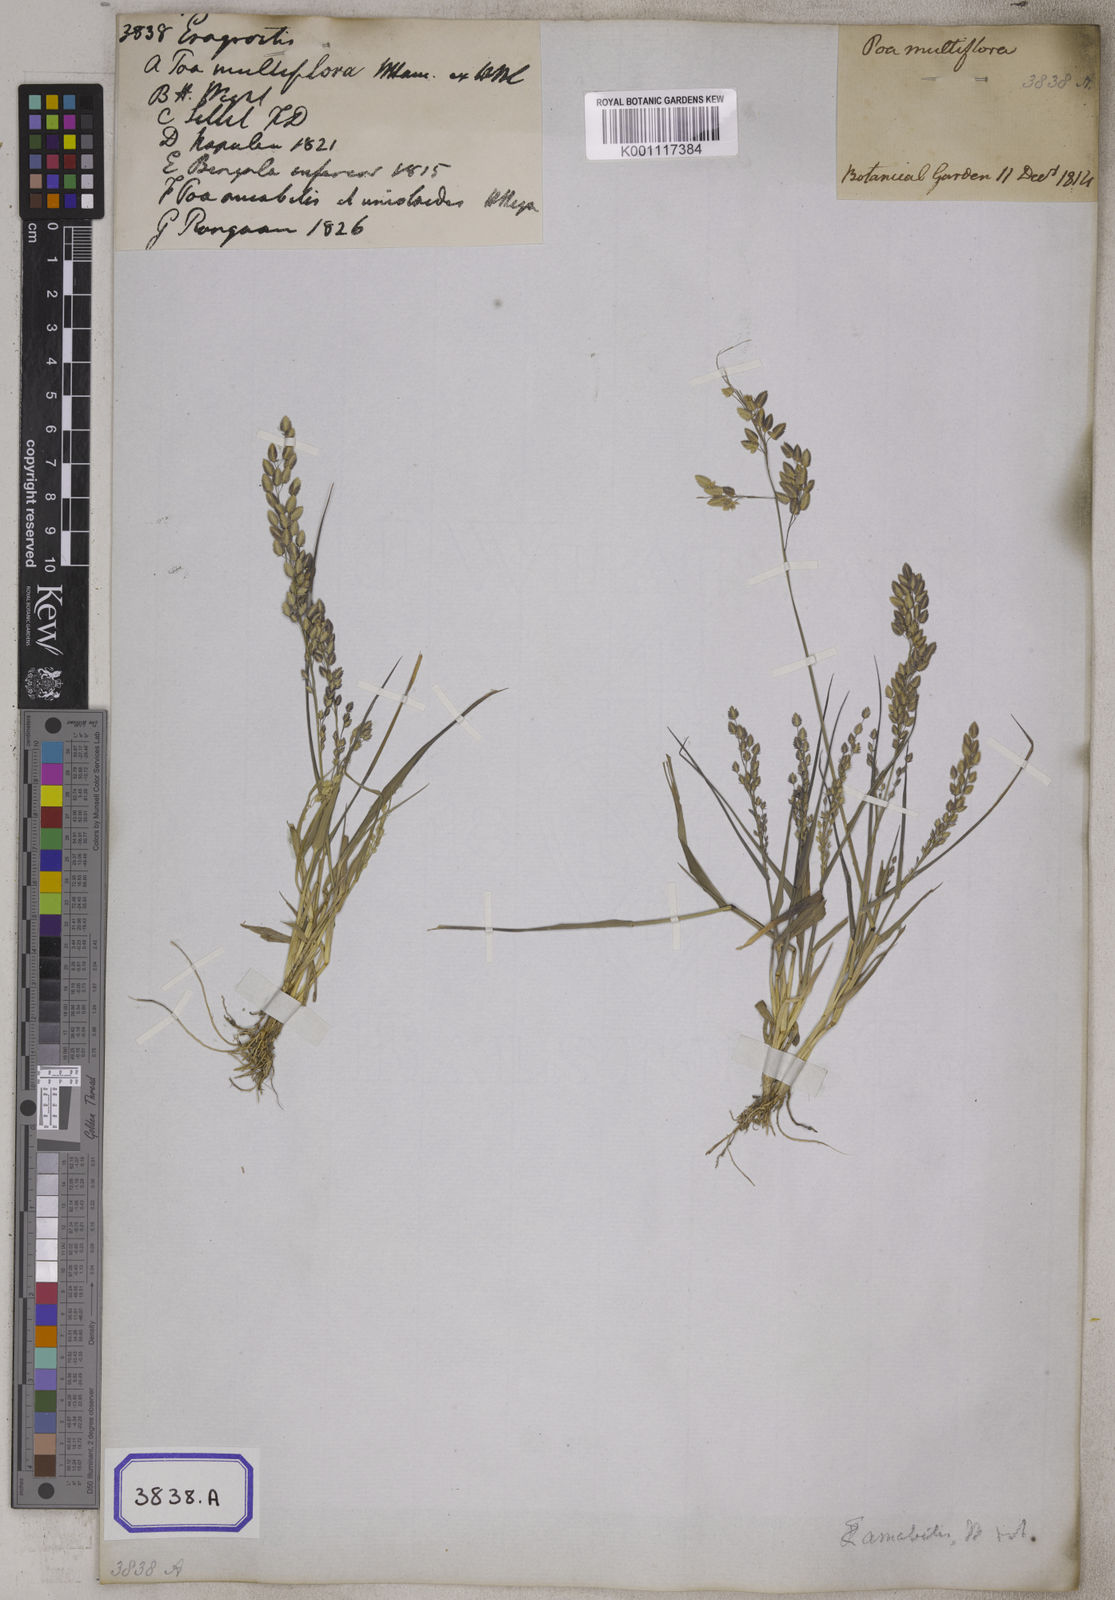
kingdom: Plantae
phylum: Tracheophyta
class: Liliopsida
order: Poales
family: Poaceae
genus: Eragrostis
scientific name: Eragrostis
